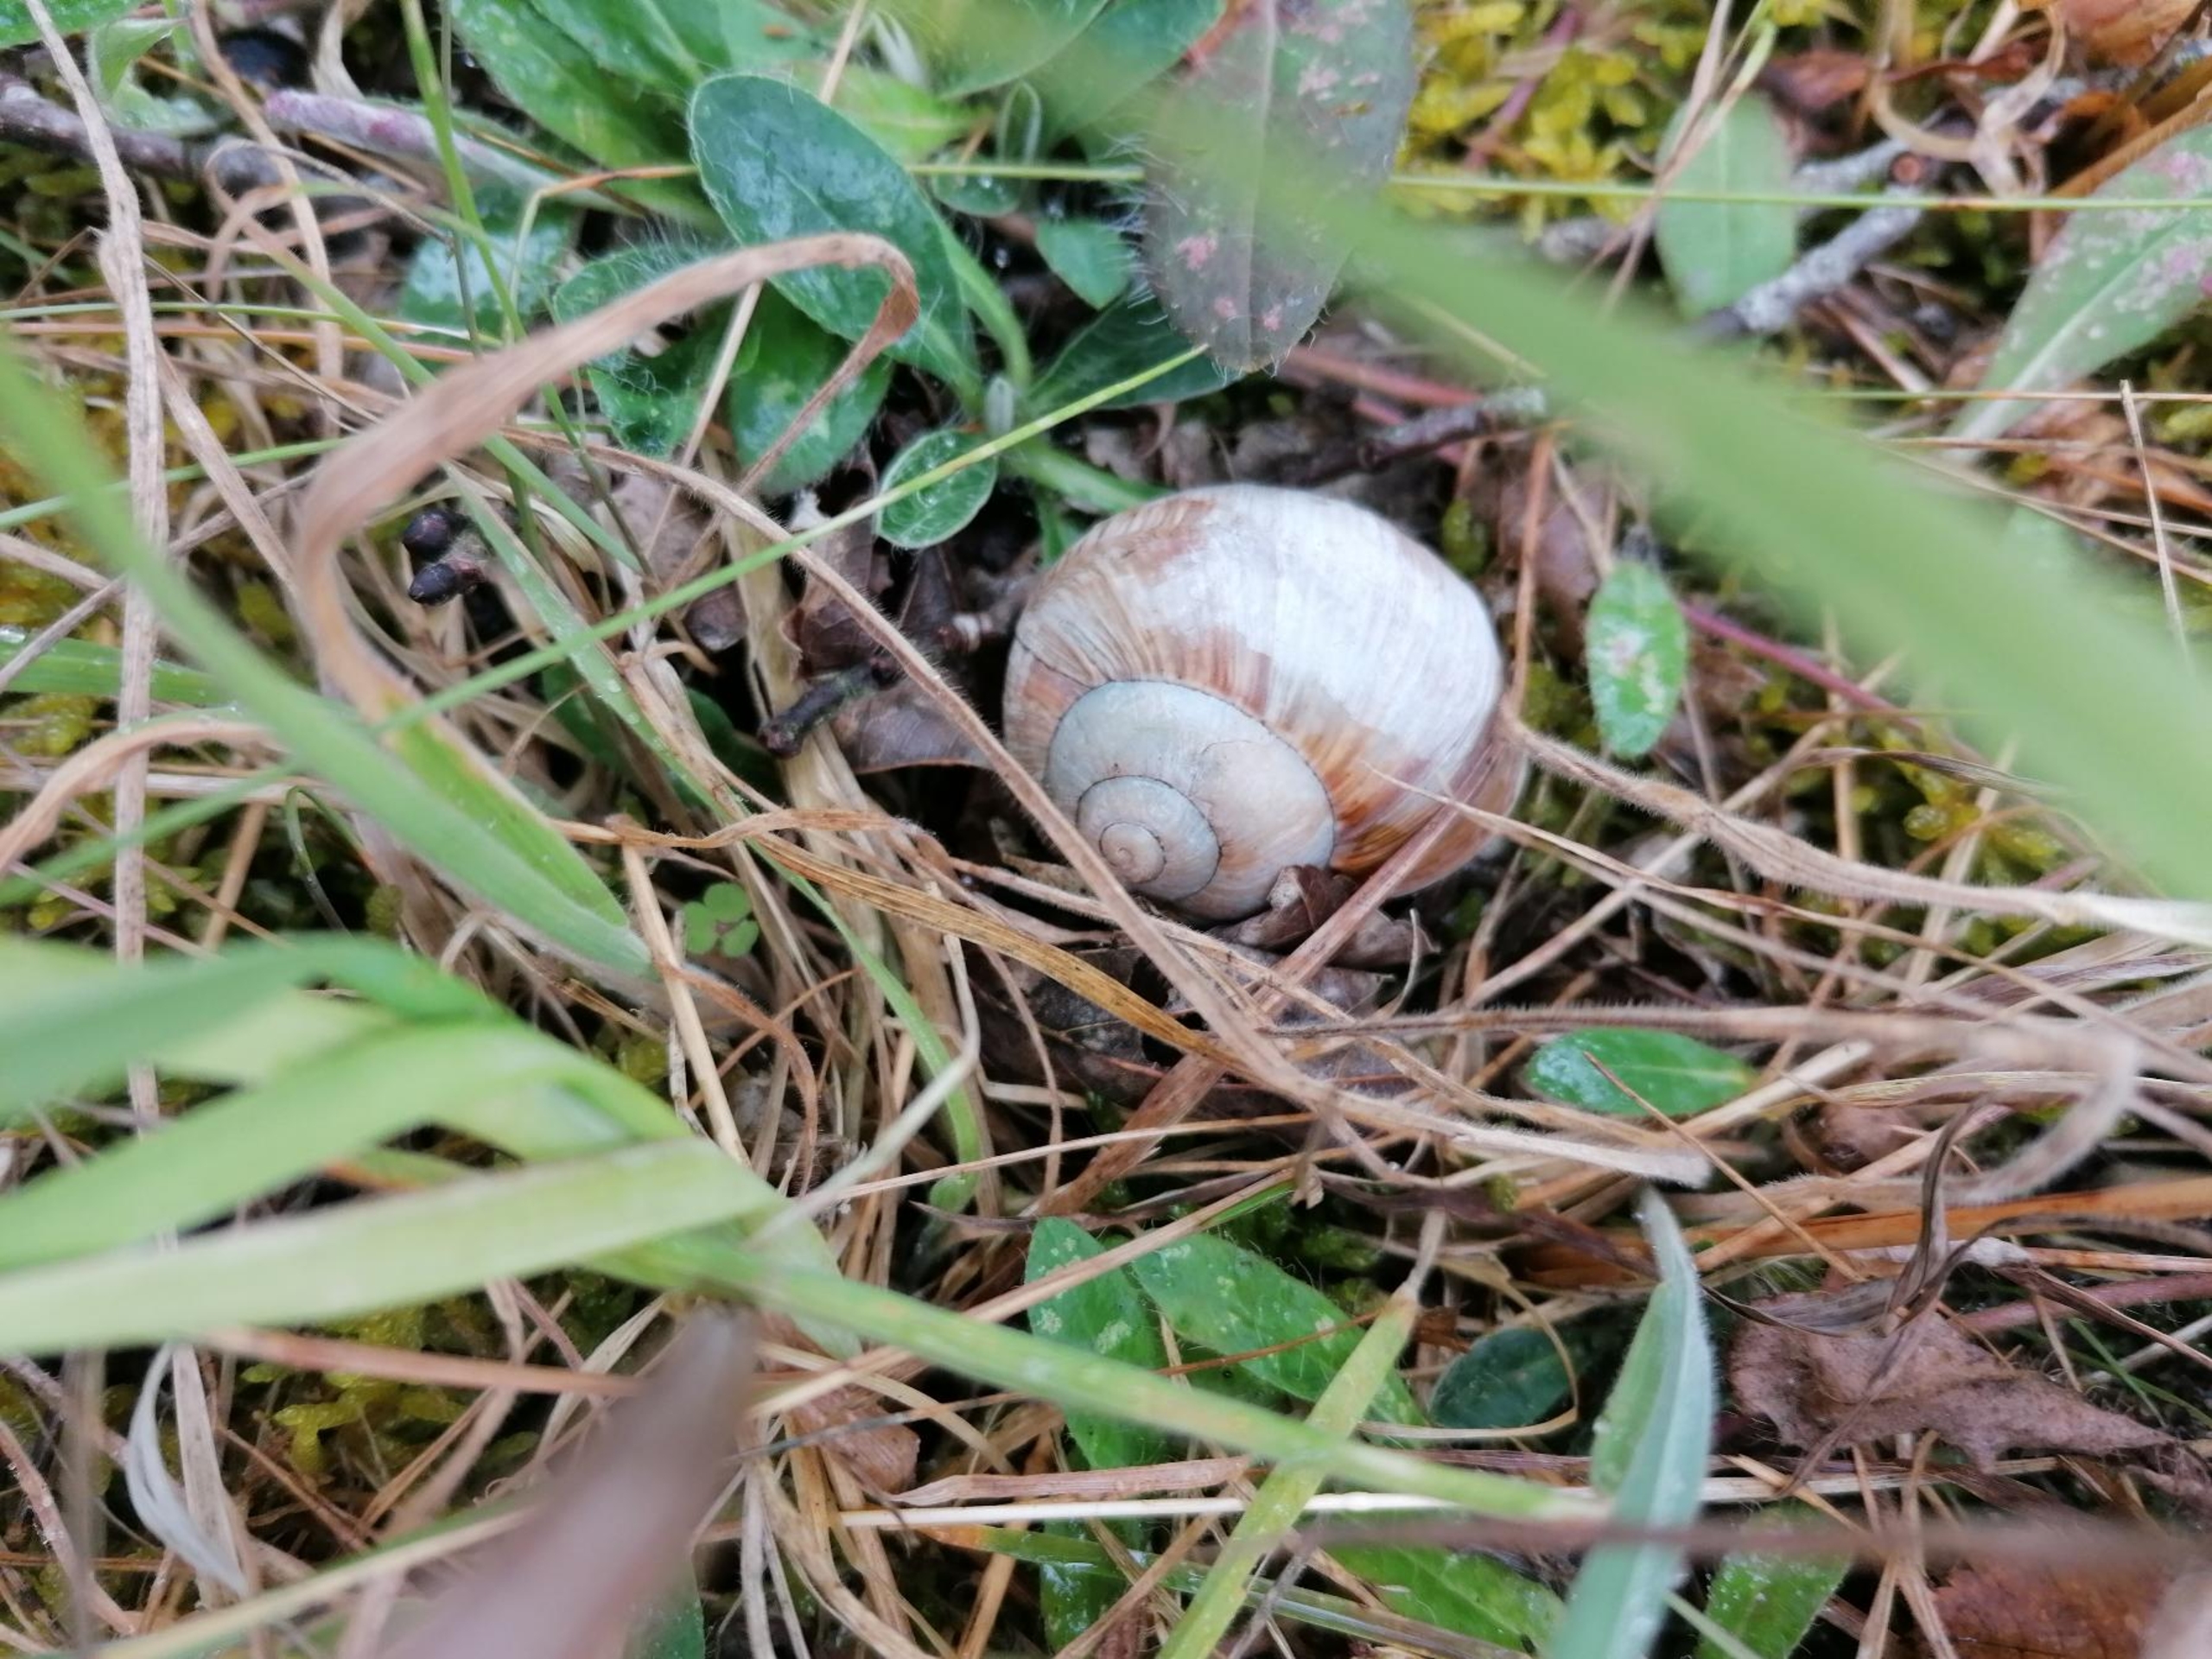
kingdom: Animalia
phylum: Mollusca
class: Gastropoda
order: Stylommatophora
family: Helicidae
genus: Helix
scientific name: Helix pomatia
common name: Vinbjergsnegl
